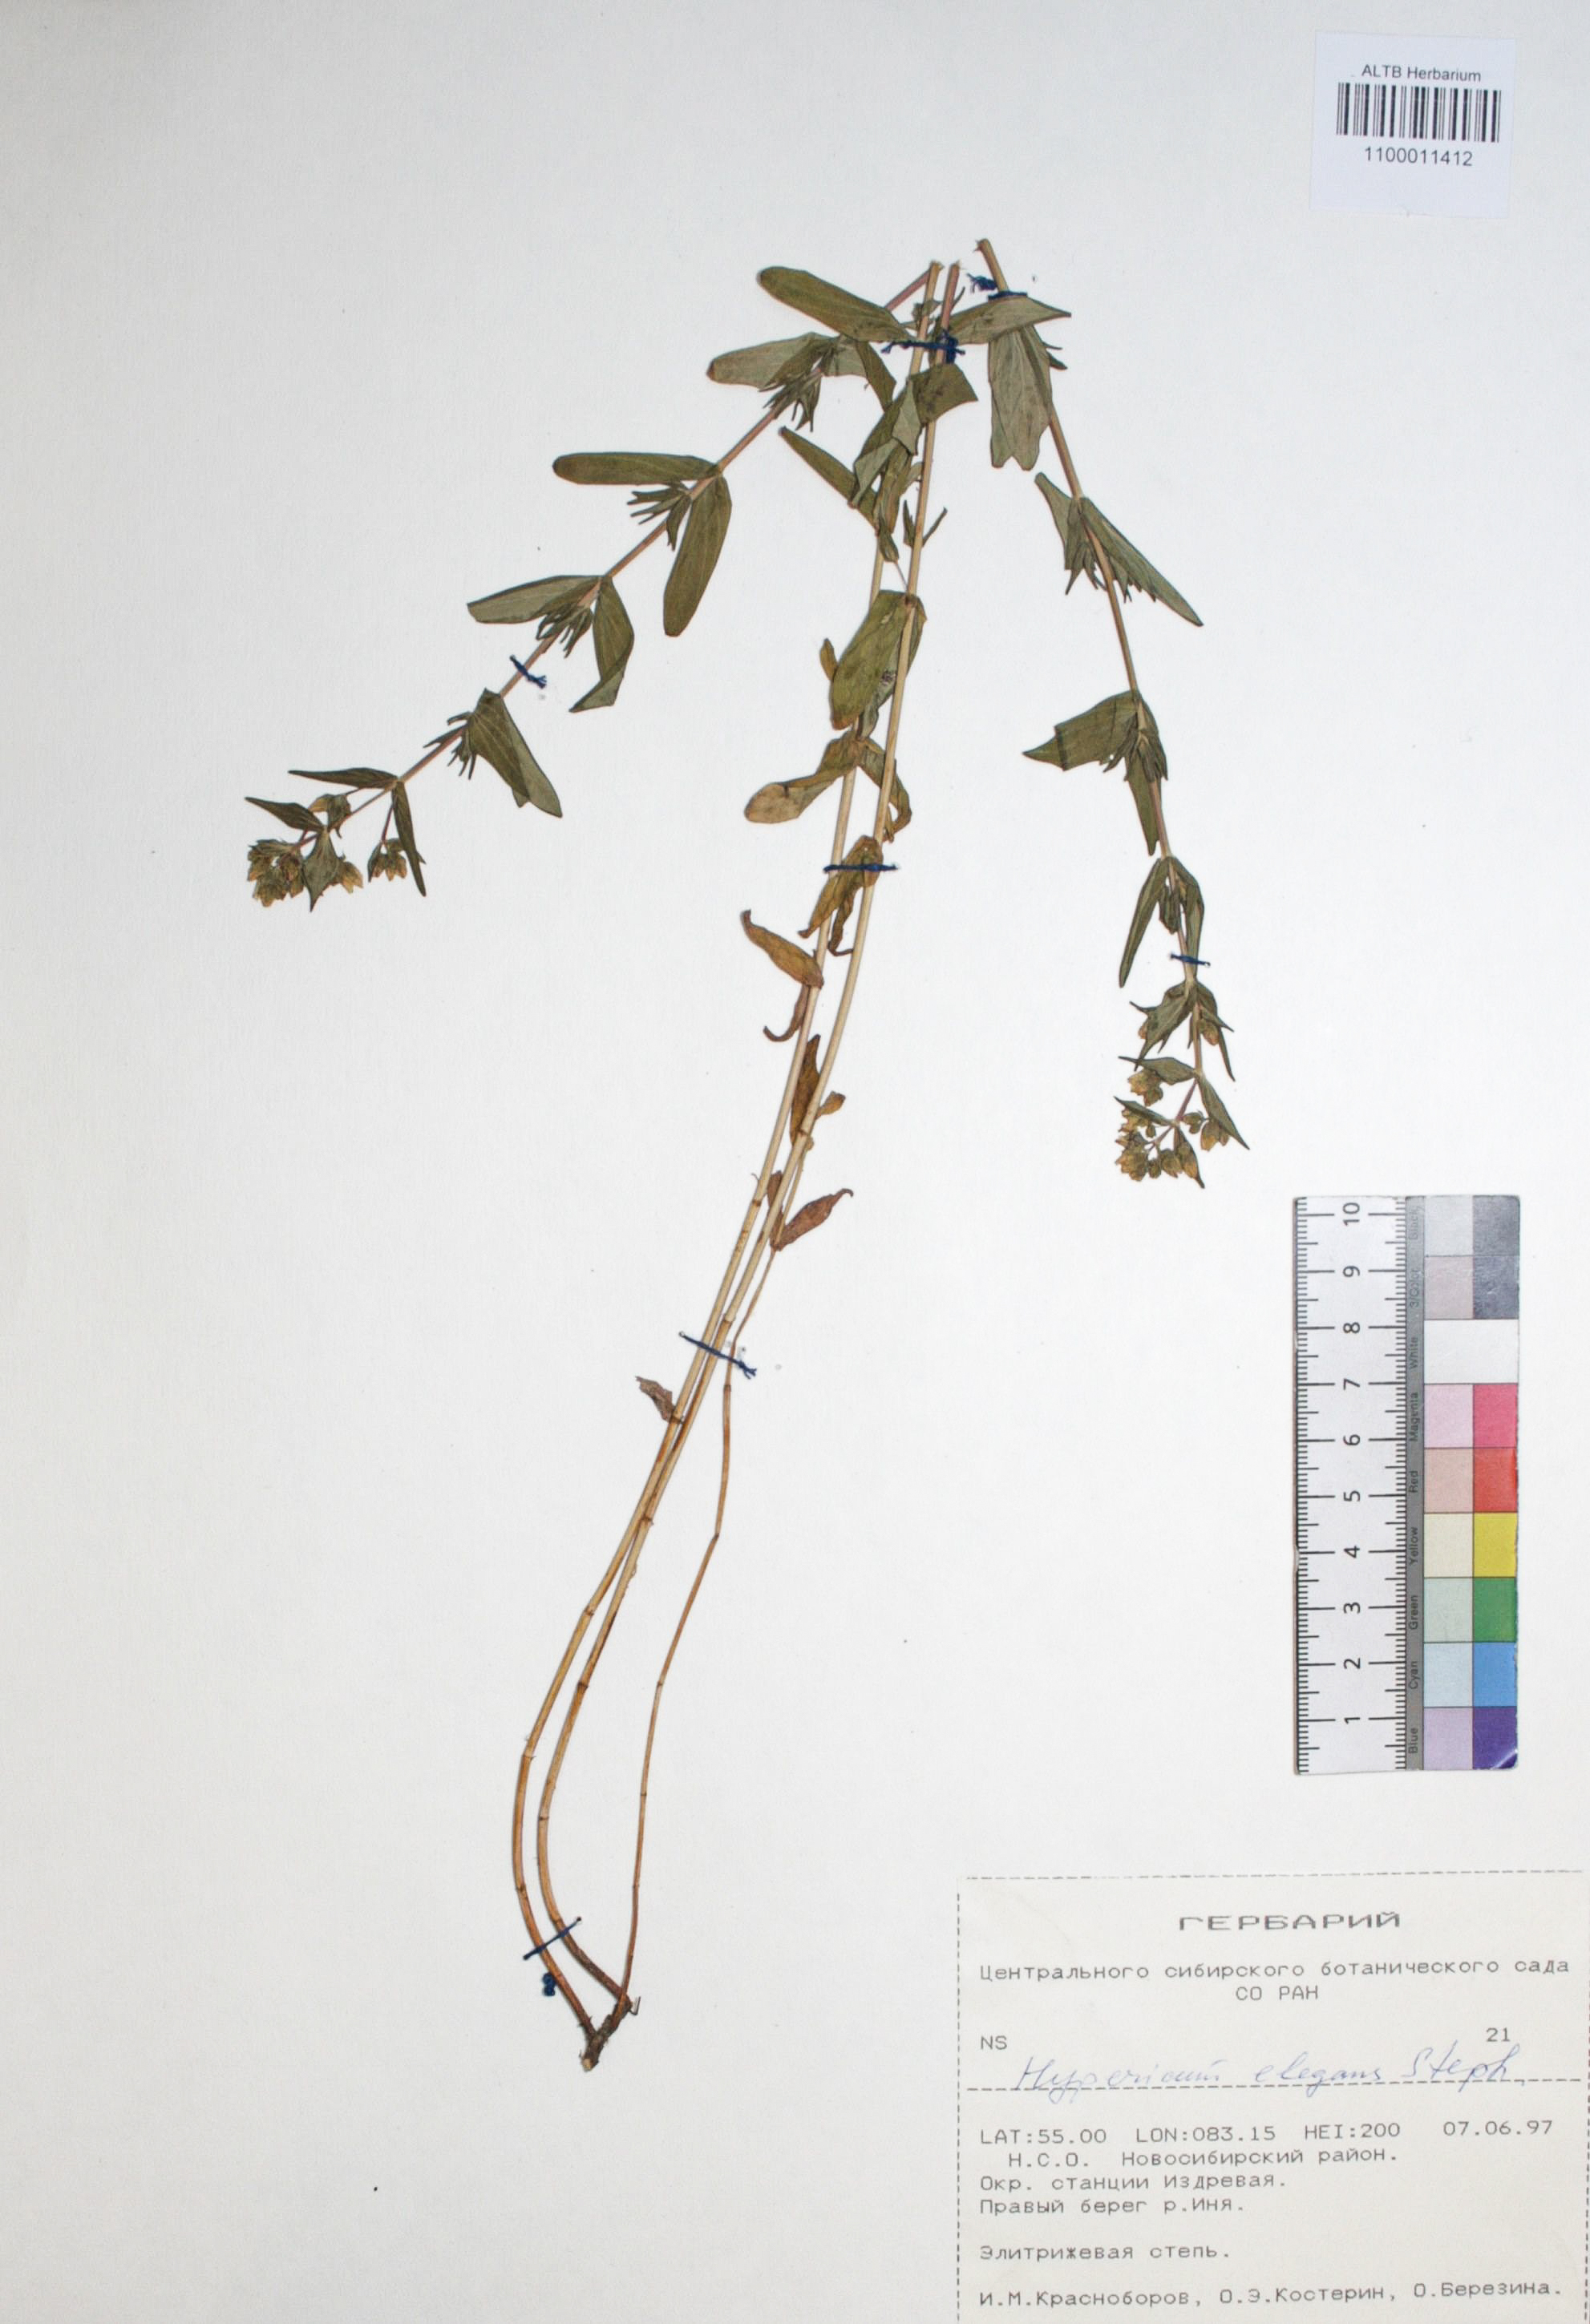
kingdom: Plantae
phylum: Tracheophyta
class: Magnoliopsida
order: Malpighiales
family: Hypericaceae
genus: Hypericum
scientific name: Hypericum elegans
